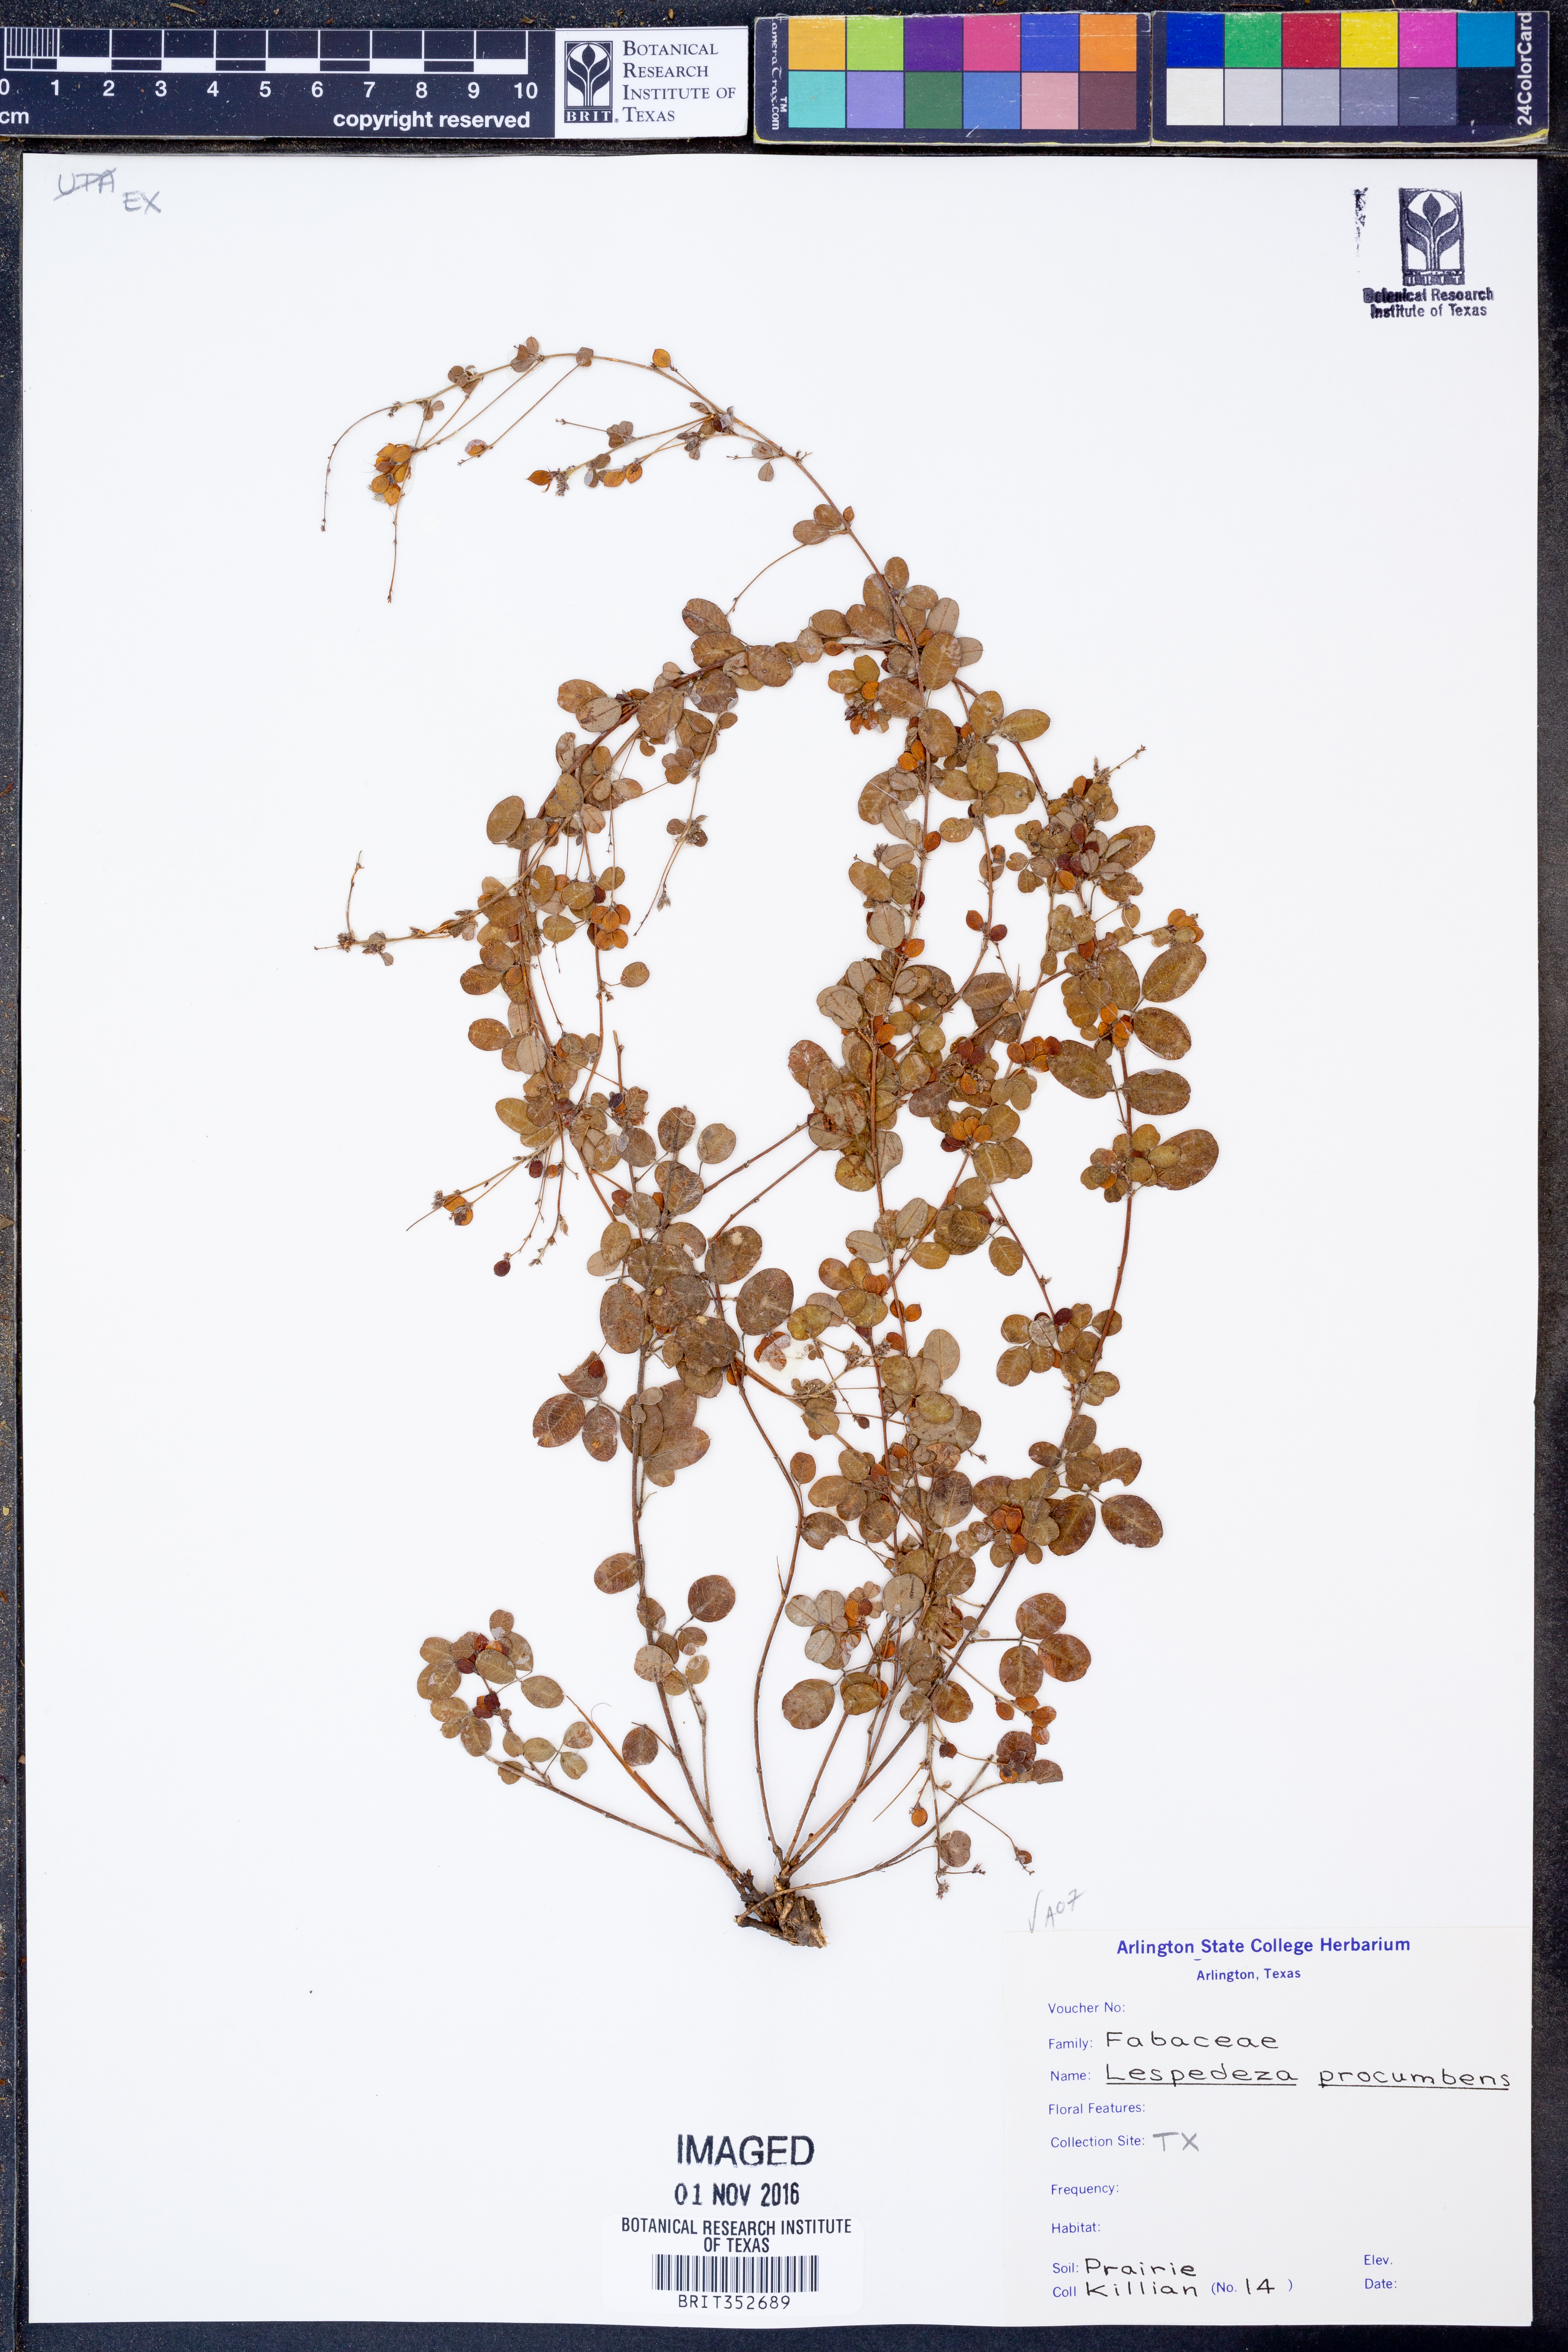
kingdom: Plantae
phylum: Tracheophyta
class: Magnoliopsida
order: Fabales
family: Fabaceae
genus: Lespedeza
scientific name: Lespedeza procumbens
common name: Downy trailing bush-clover
